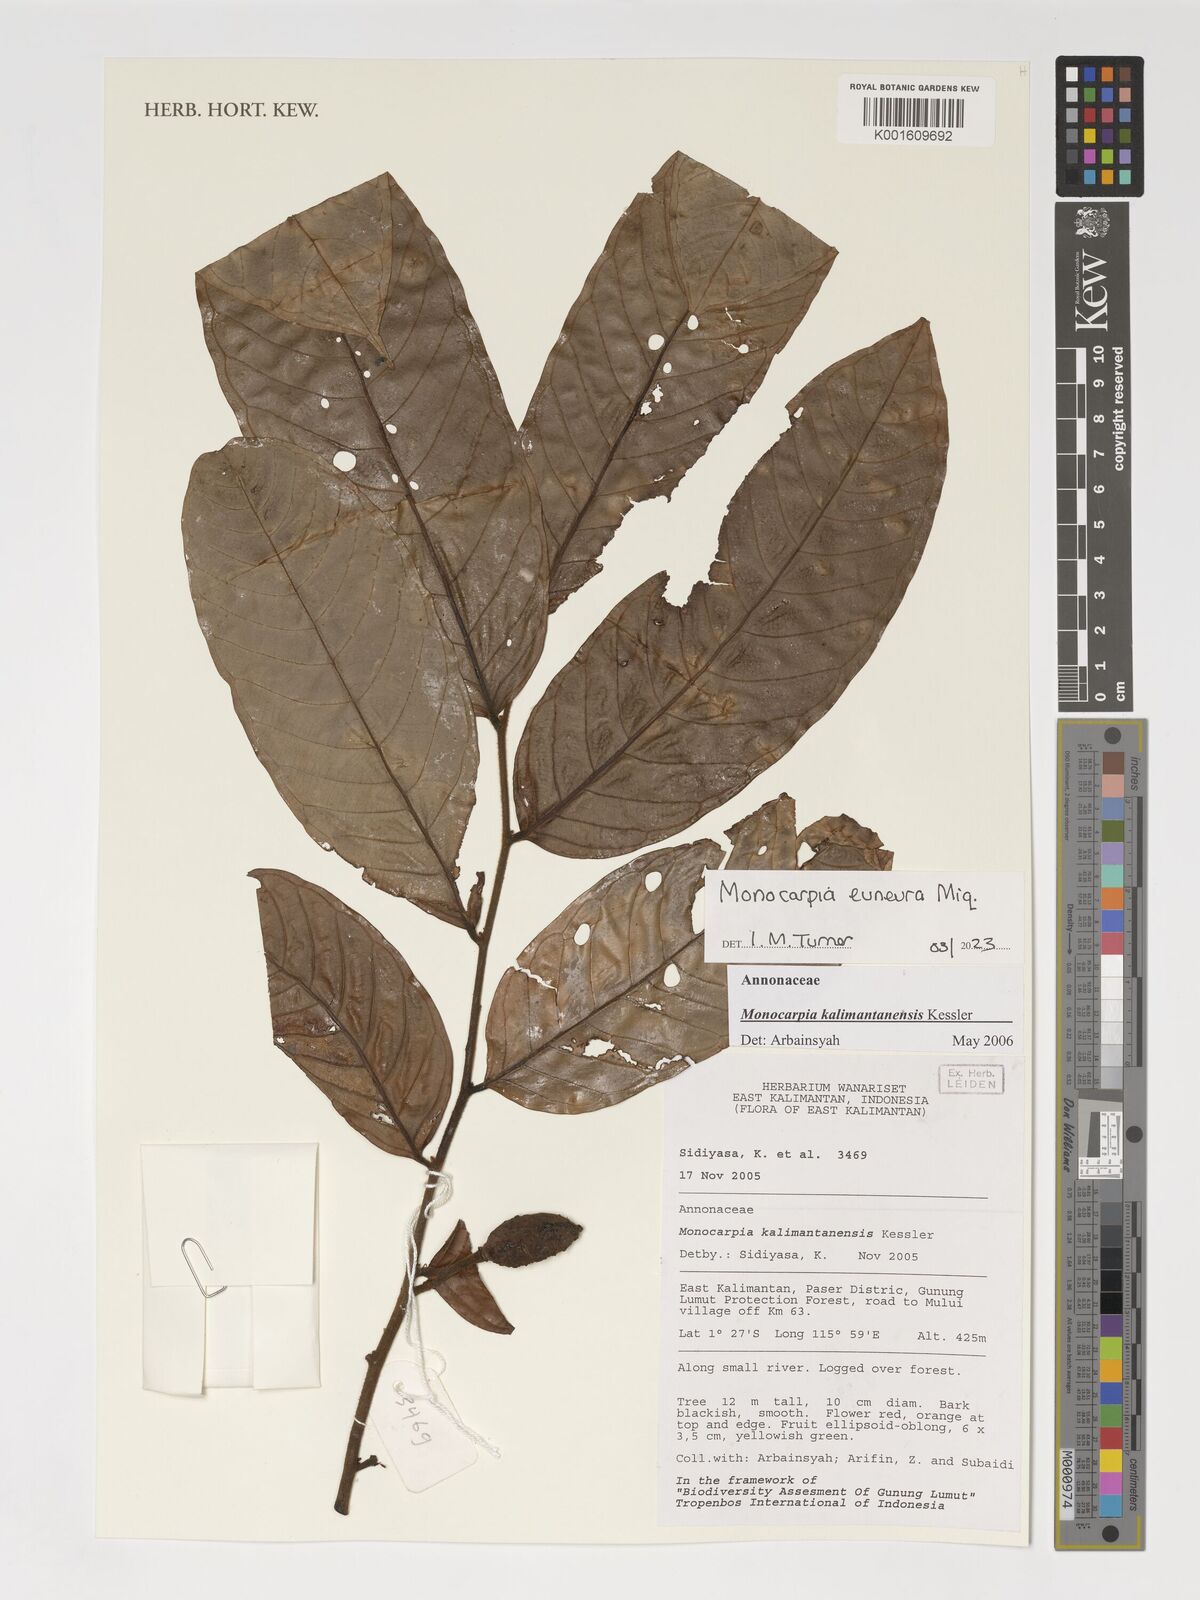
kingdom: Plantae
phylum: Tracheophyta
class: Magnoliopsida
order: Magnoliales
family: Annonaceae
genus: Monocarpia
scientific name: Monocarpia euneura
